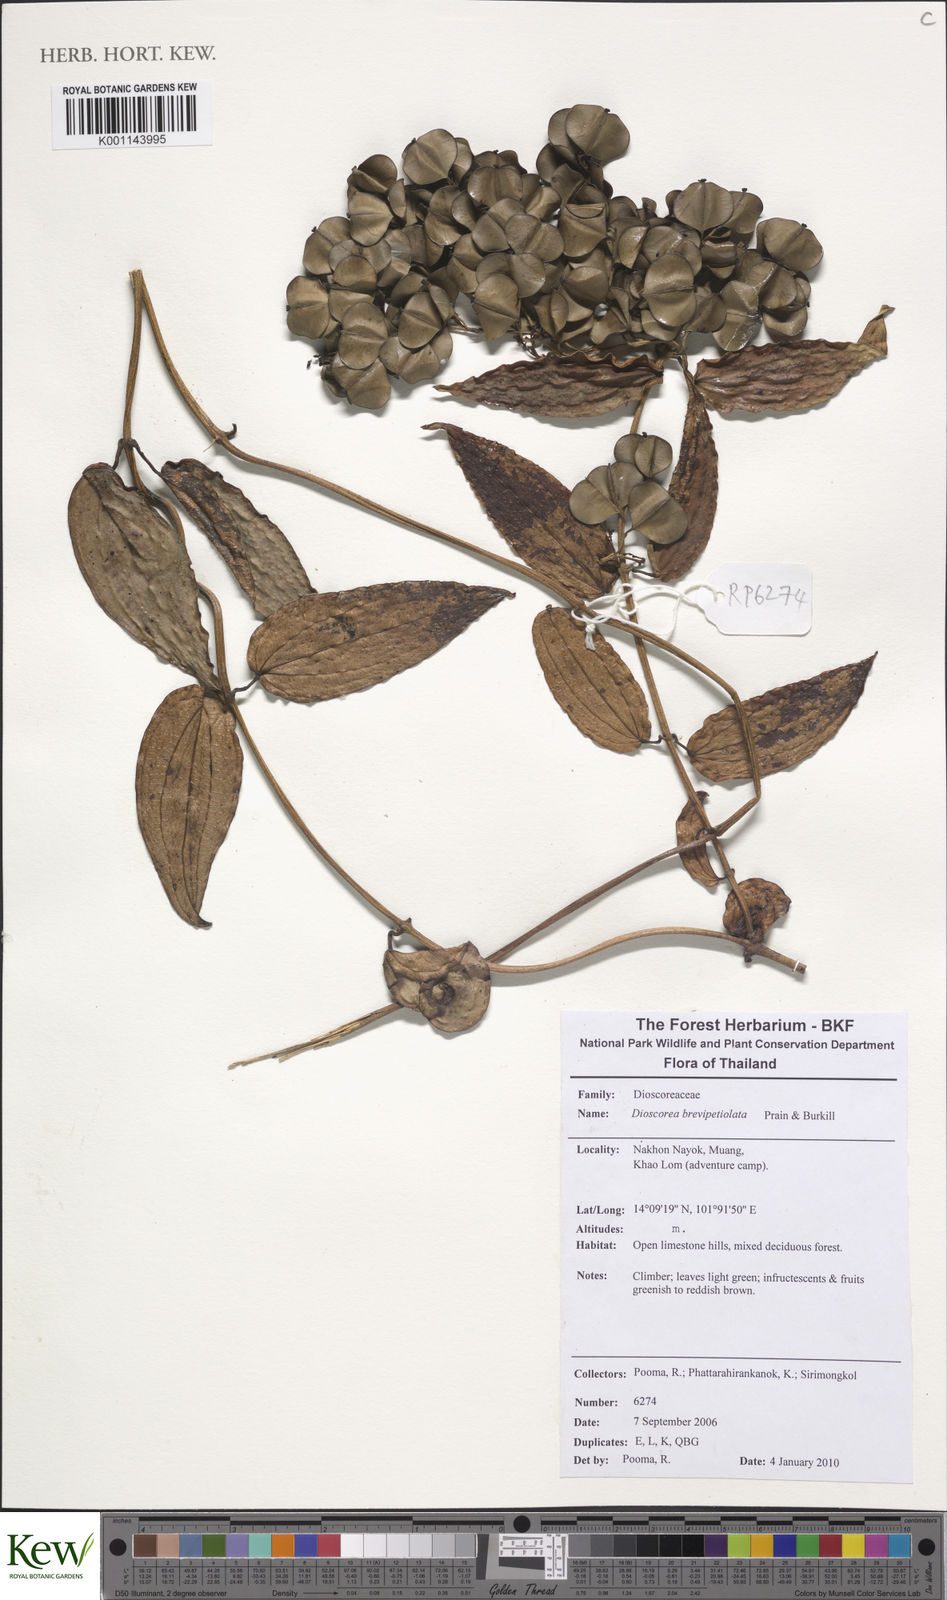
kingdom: Plantae
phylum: Tracheophyta
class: Liliopsida
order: Dioscoreales
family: Dioscoreaceae
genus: Dioscorea
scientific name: Dioscorea brevipetiolata
